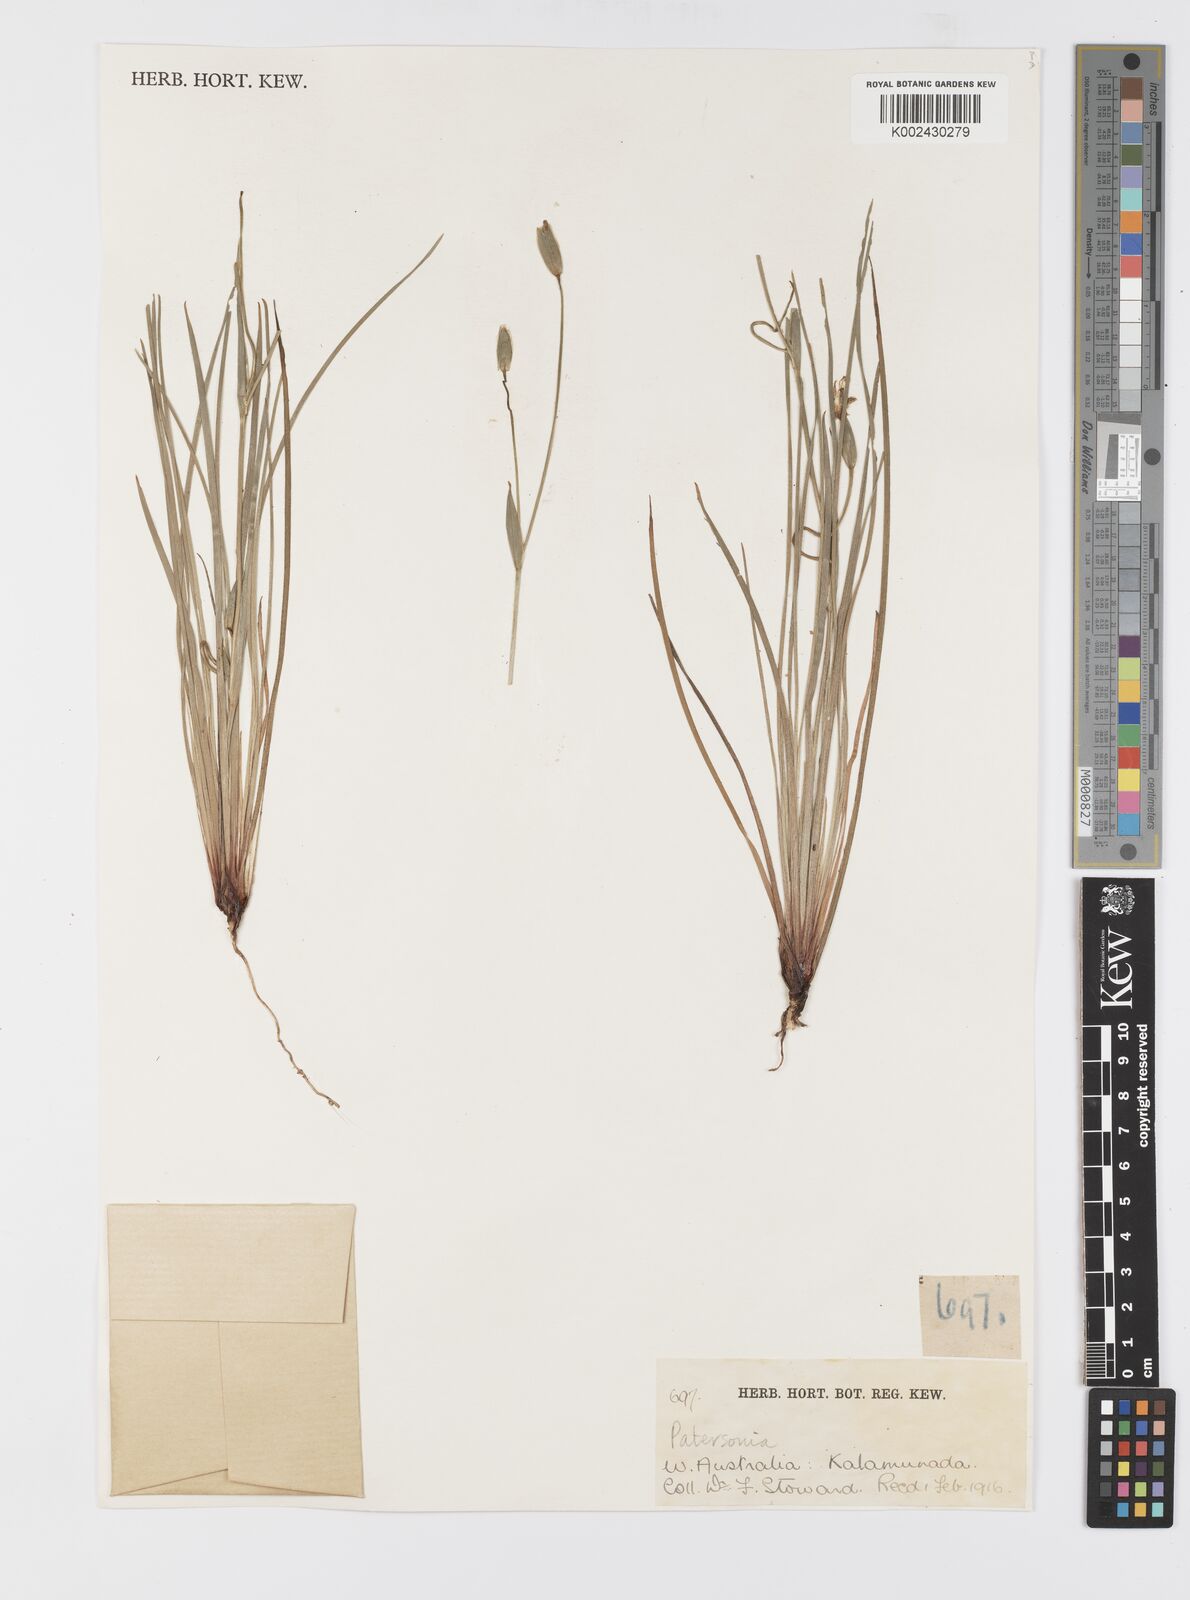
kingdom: Plantae
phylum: Tracheophyta
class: Liliopsida
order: Asparagales
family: Iridaceae
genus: Patersonia
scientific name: Patersonia
